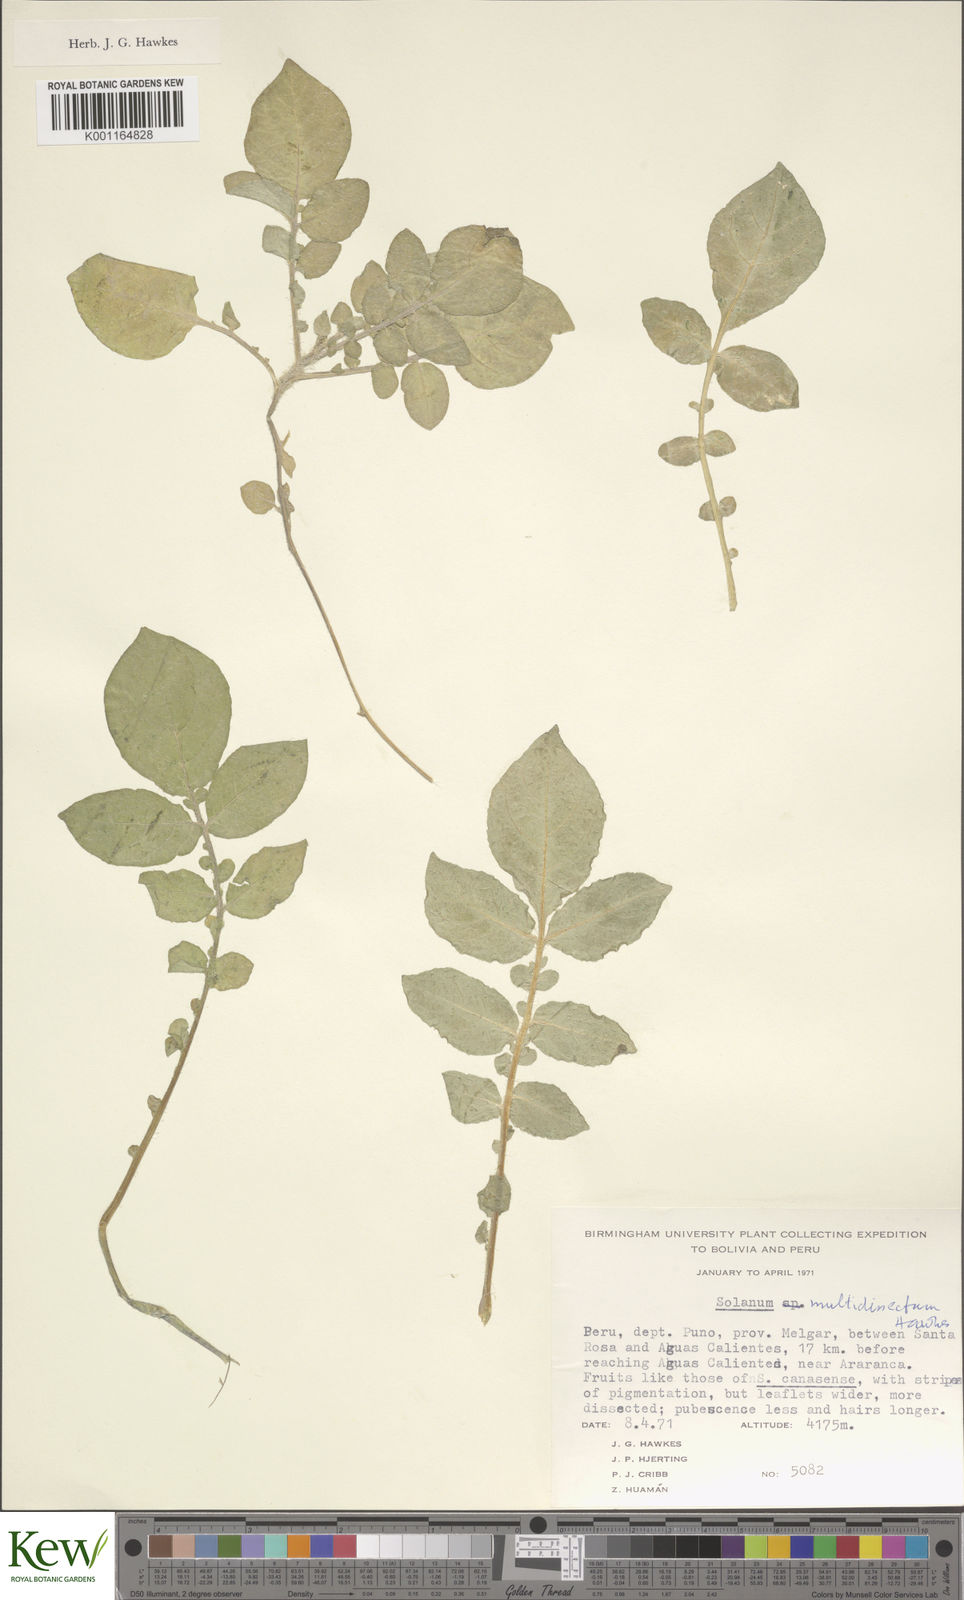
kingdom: Plantae
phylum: Tracheophyta
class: Magnoliopsida
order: Solanales
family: Solanaceae
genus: Solanum
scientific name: Solanum candolleanum
